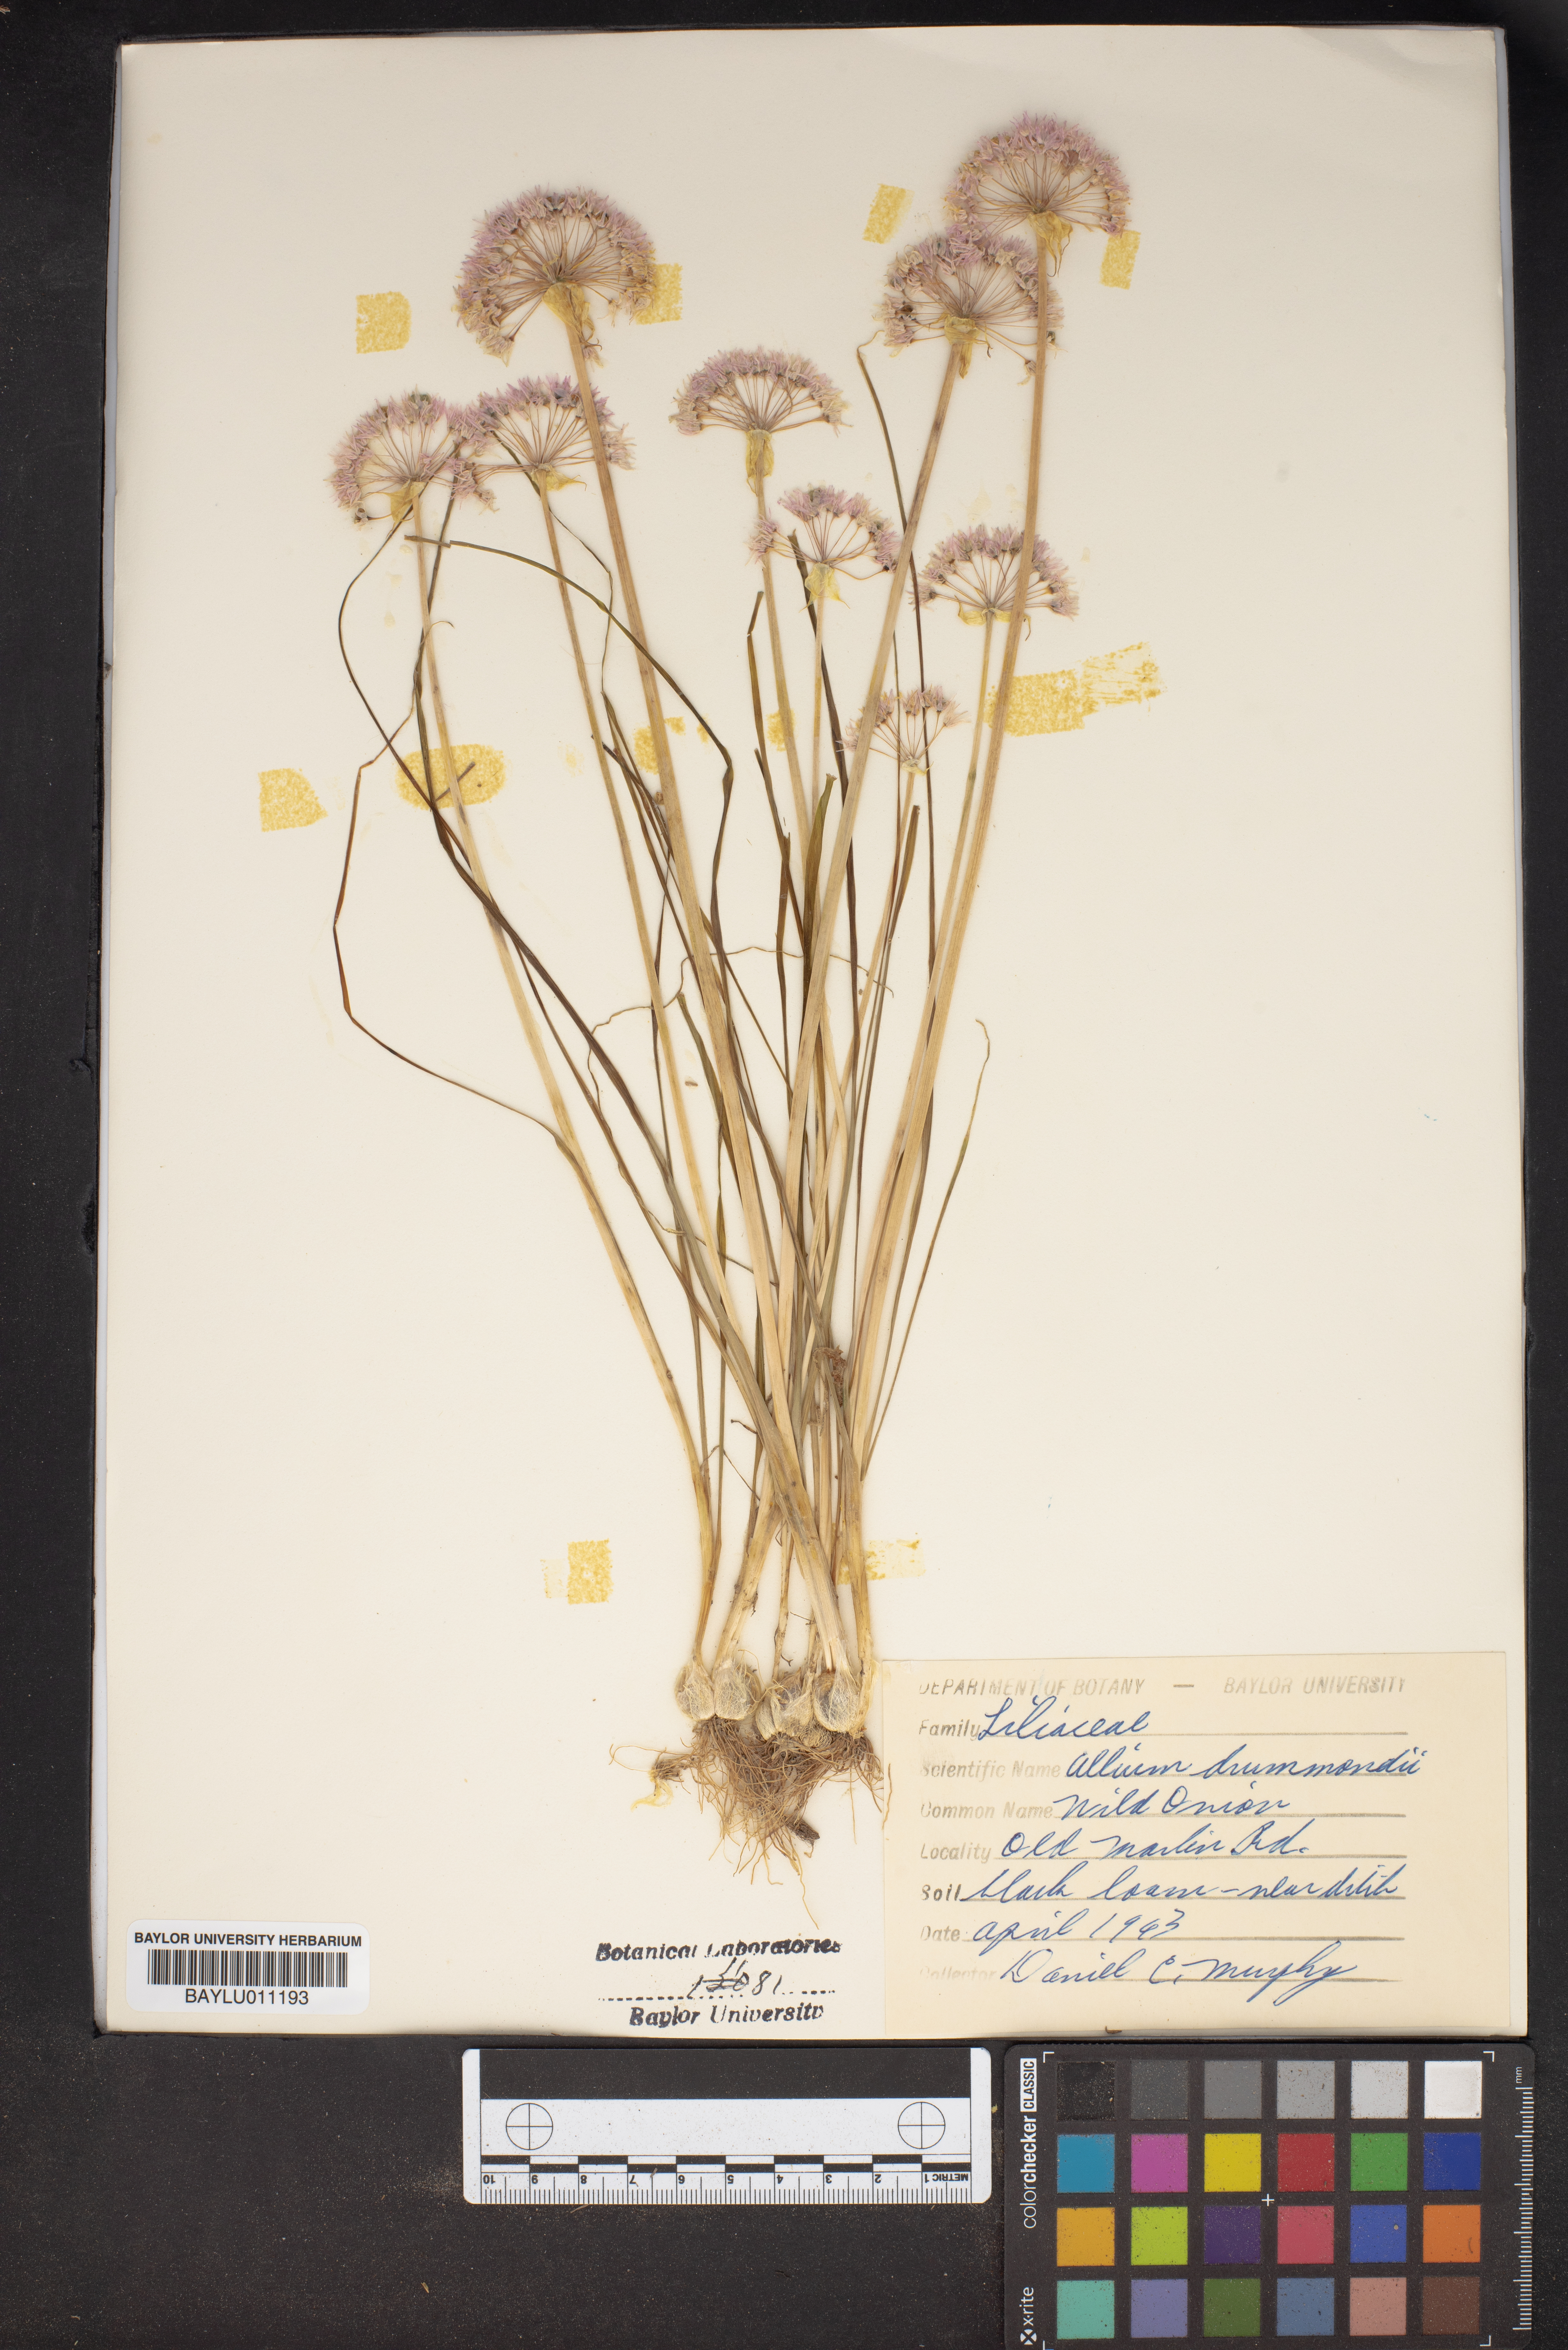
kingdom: Plantae
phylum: Tracheophyta
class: Liliopsida
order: Asparagales
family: Amaryllidaceae
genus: Allium
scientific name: Allium drummondii
